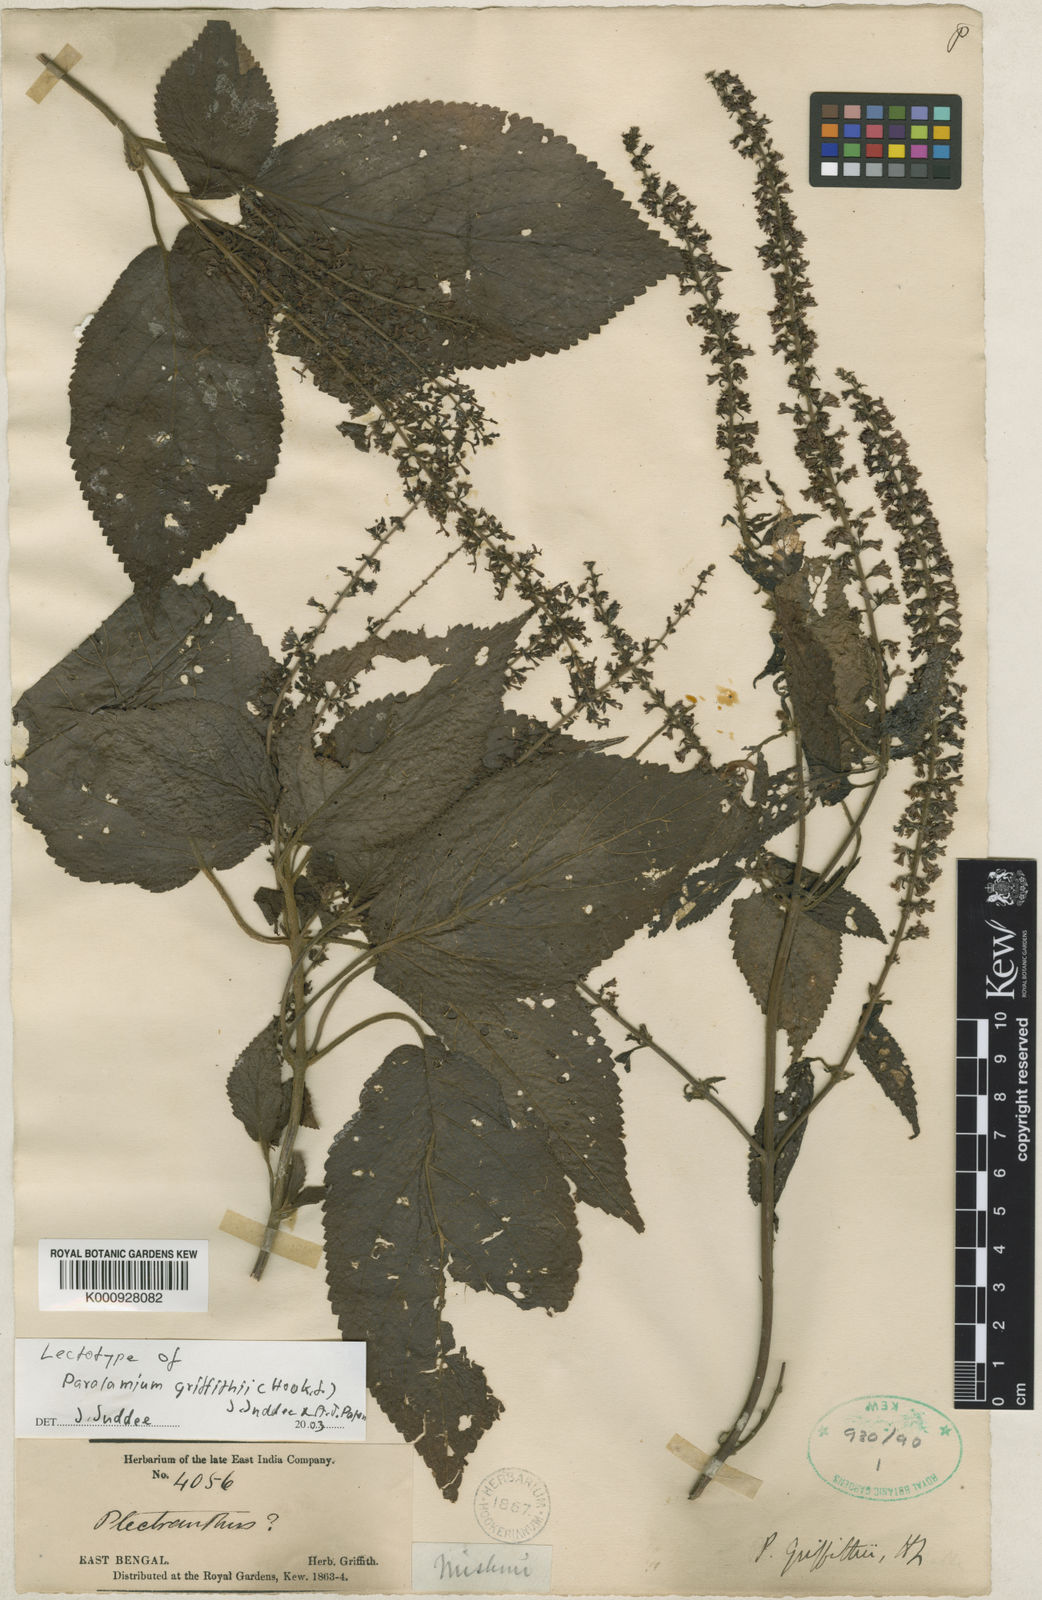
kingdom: Plantae
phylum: Tracheophyta
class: Magnoliopsida
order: Lamiales
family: Lamiaceae
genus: Paralamium
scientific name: Paralamium griffithii
